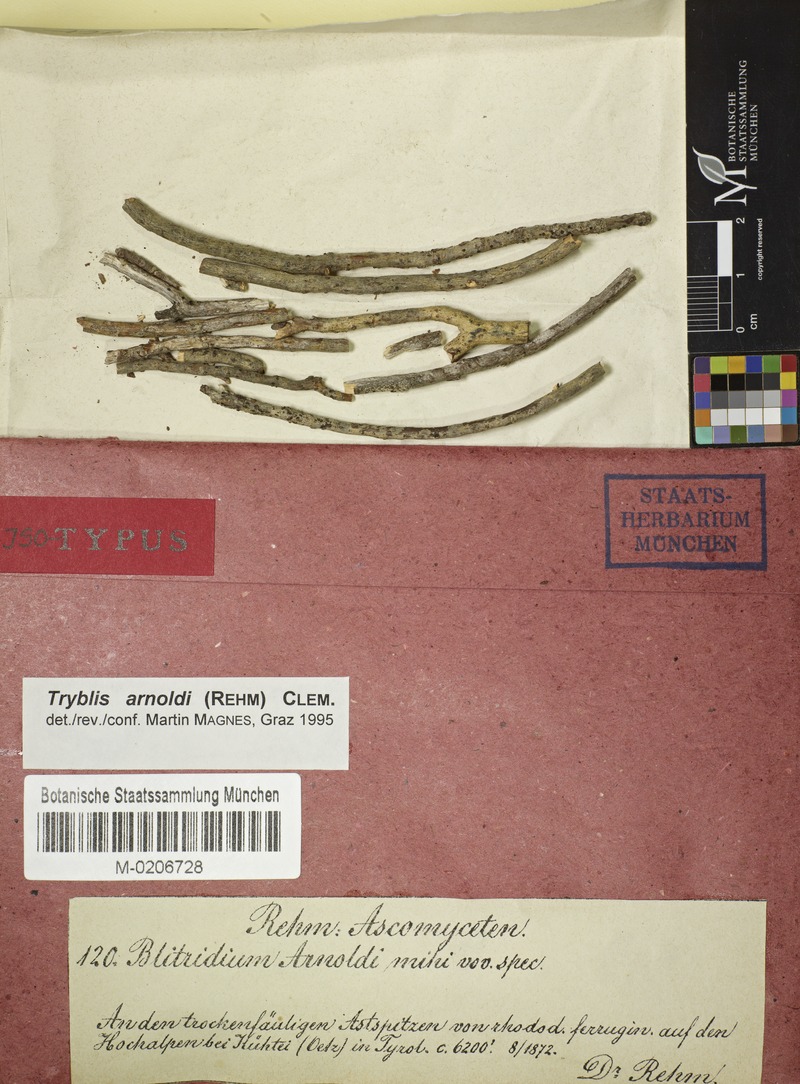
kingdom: Fungi
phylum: Ascomycota
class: Lecanoromycetes
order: Ostropales
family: Odontotremataceae
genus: Tryblis
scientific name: Tryblis arnoldii
